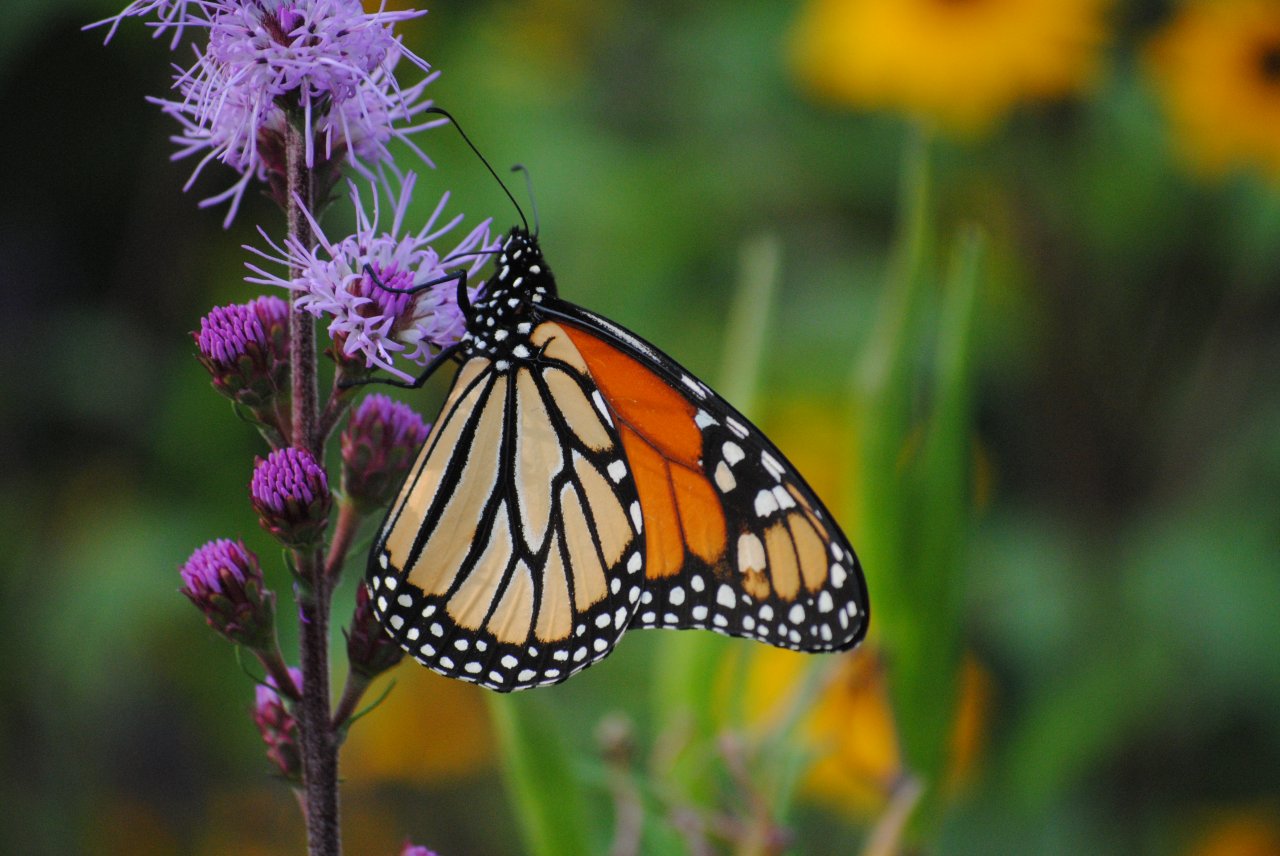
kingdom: Animalia
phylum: Arthropoda
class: Insecta
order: Lepidoptera
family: Nymphalidae
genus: Danaus
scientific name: Danaus plexippus
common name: Monarch
